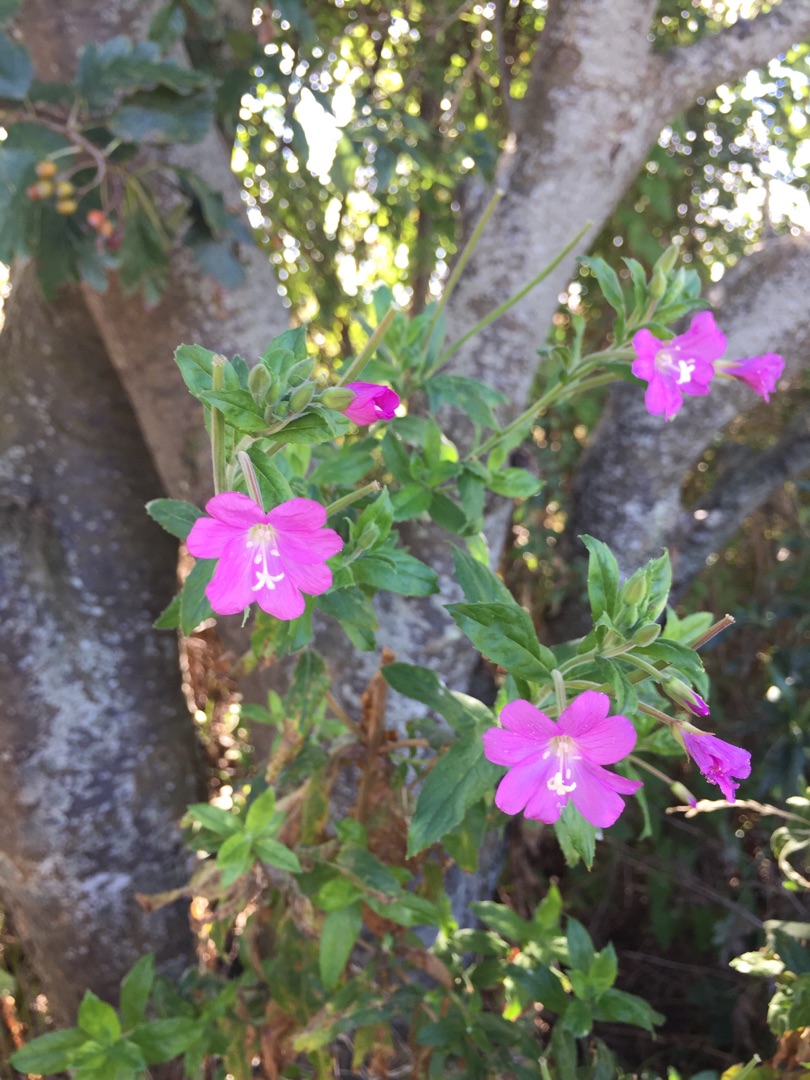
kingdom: Plantae
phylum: Tracheophyta
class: Magnoliopsida
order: Myrtales
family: Onagraceae
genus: Epilobium
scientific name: Epilobium hirsutum
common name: Lådden dueurt
